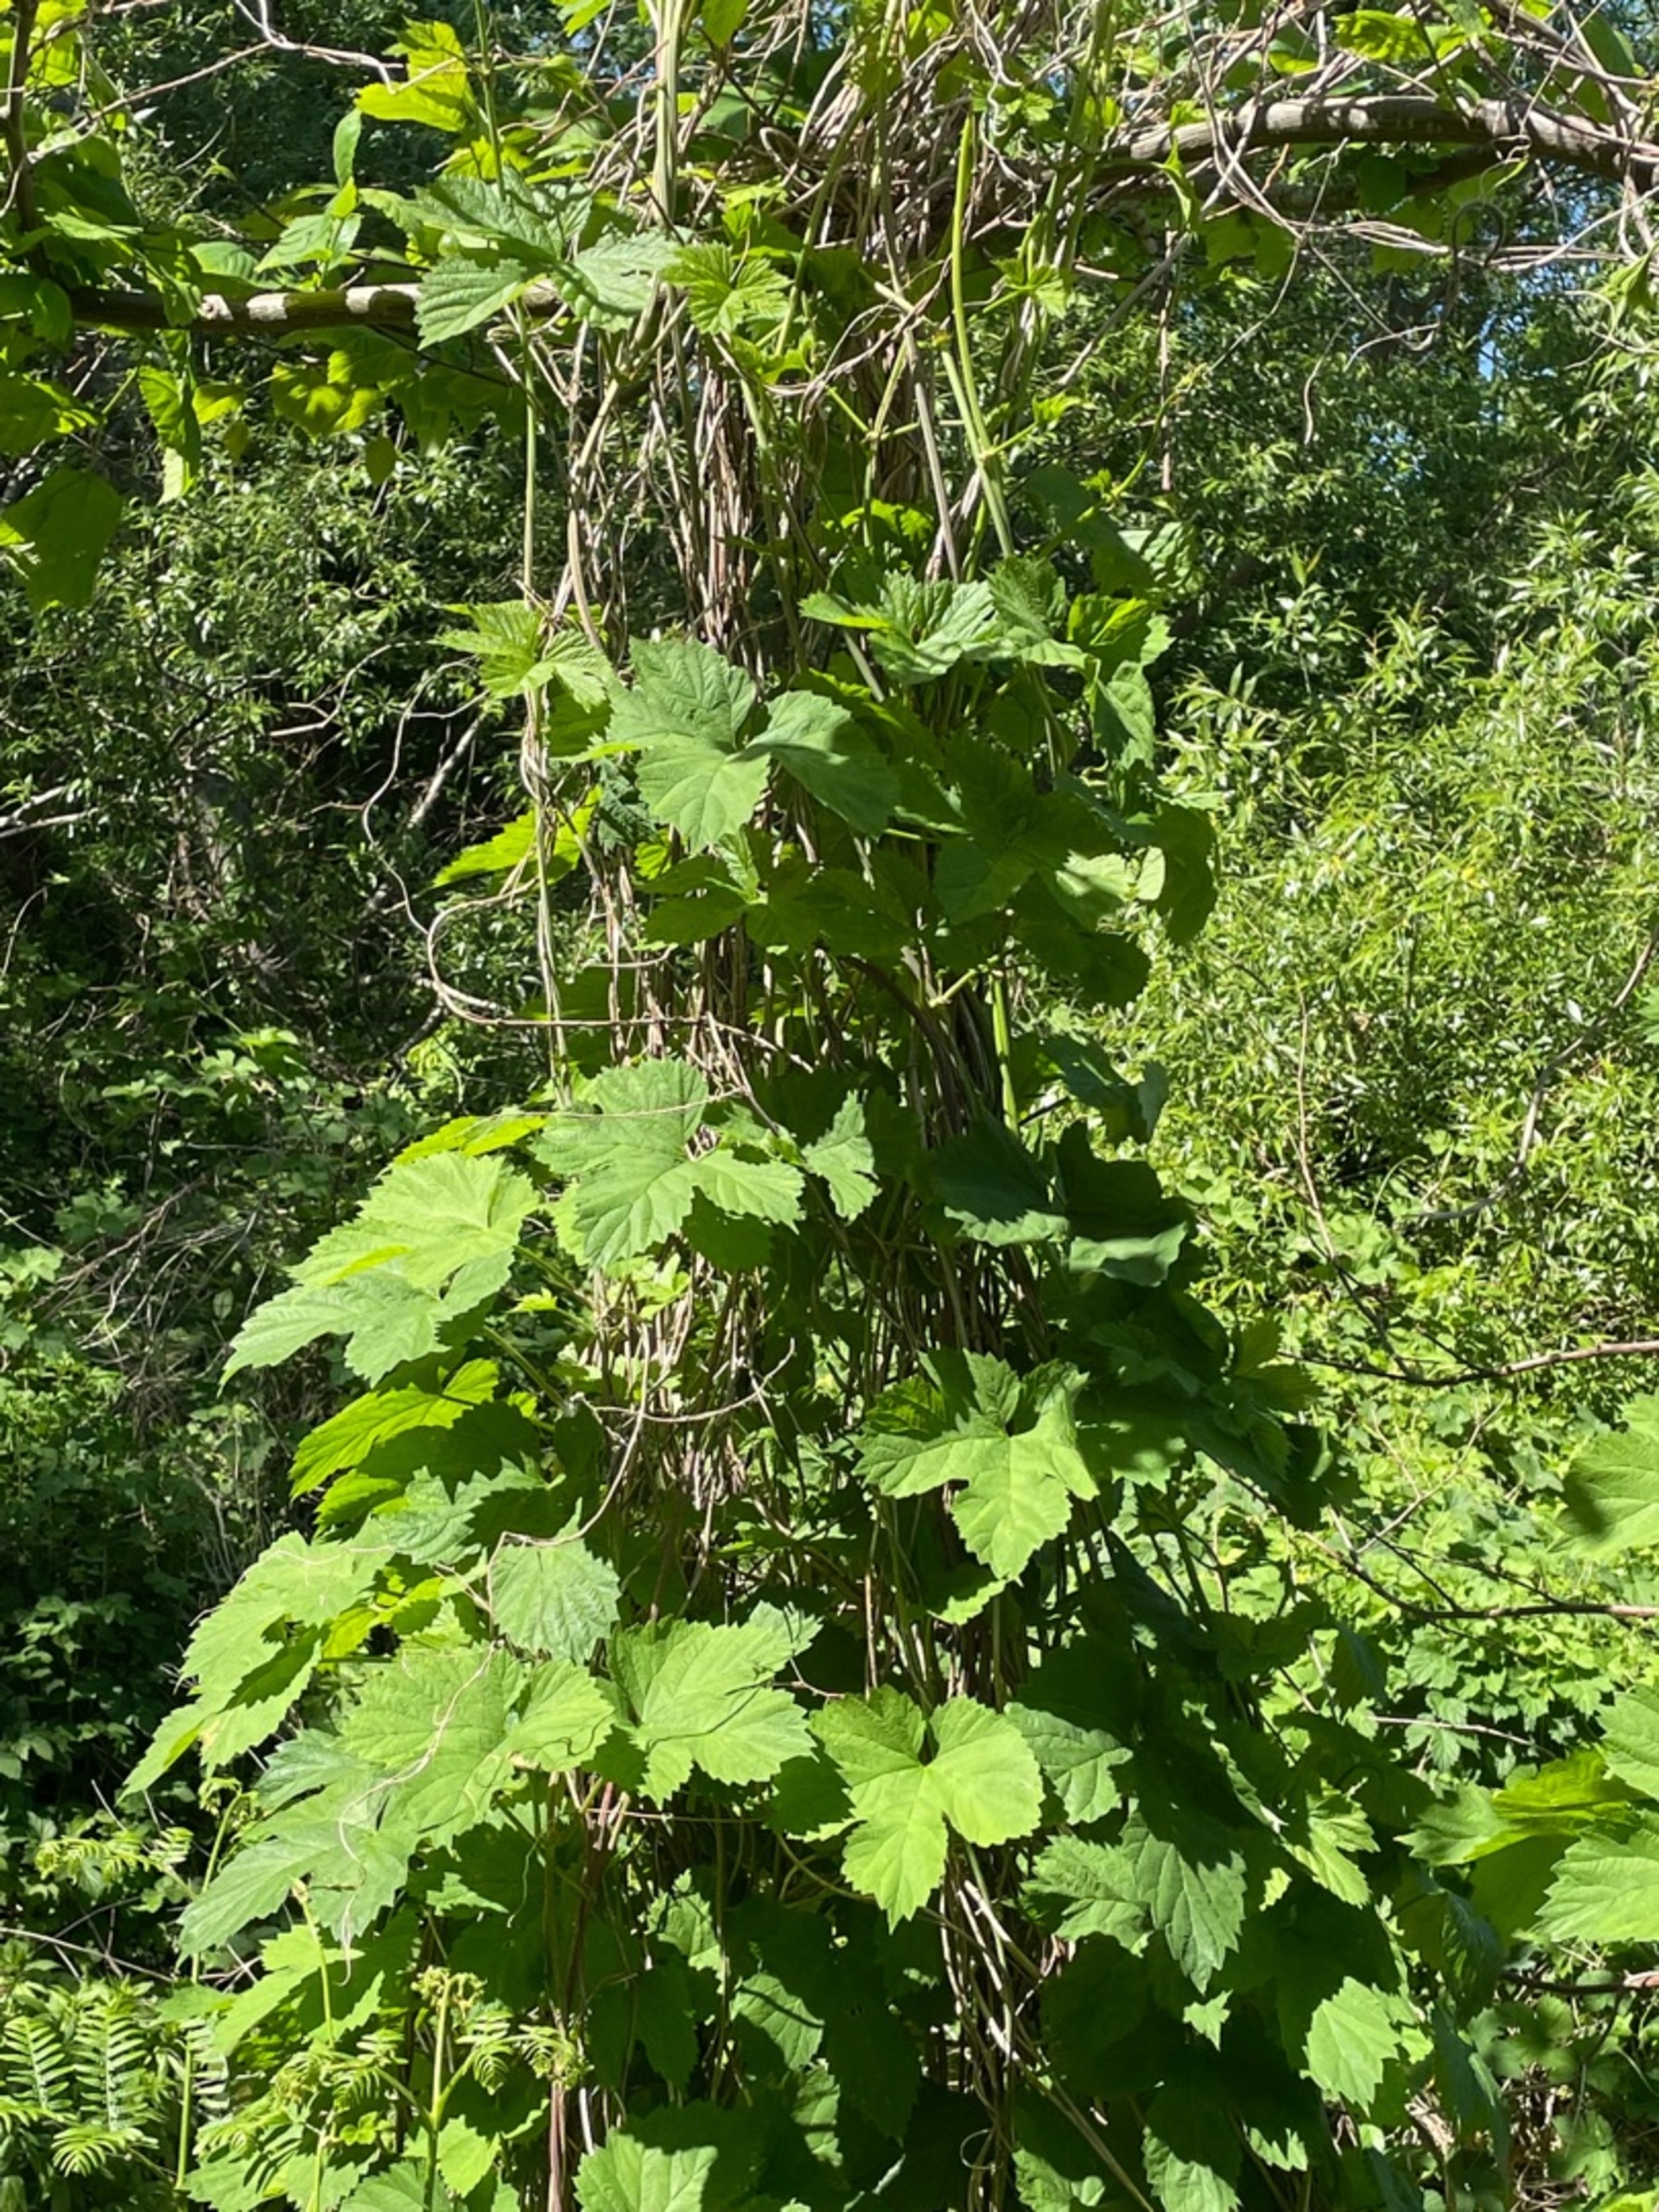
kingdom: Plantae
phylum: Tracheophyta
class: Magnoliopsida
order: Rosales
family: Cannabaceae
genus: Humulus
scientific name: Humulus lupulus
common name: Humle
